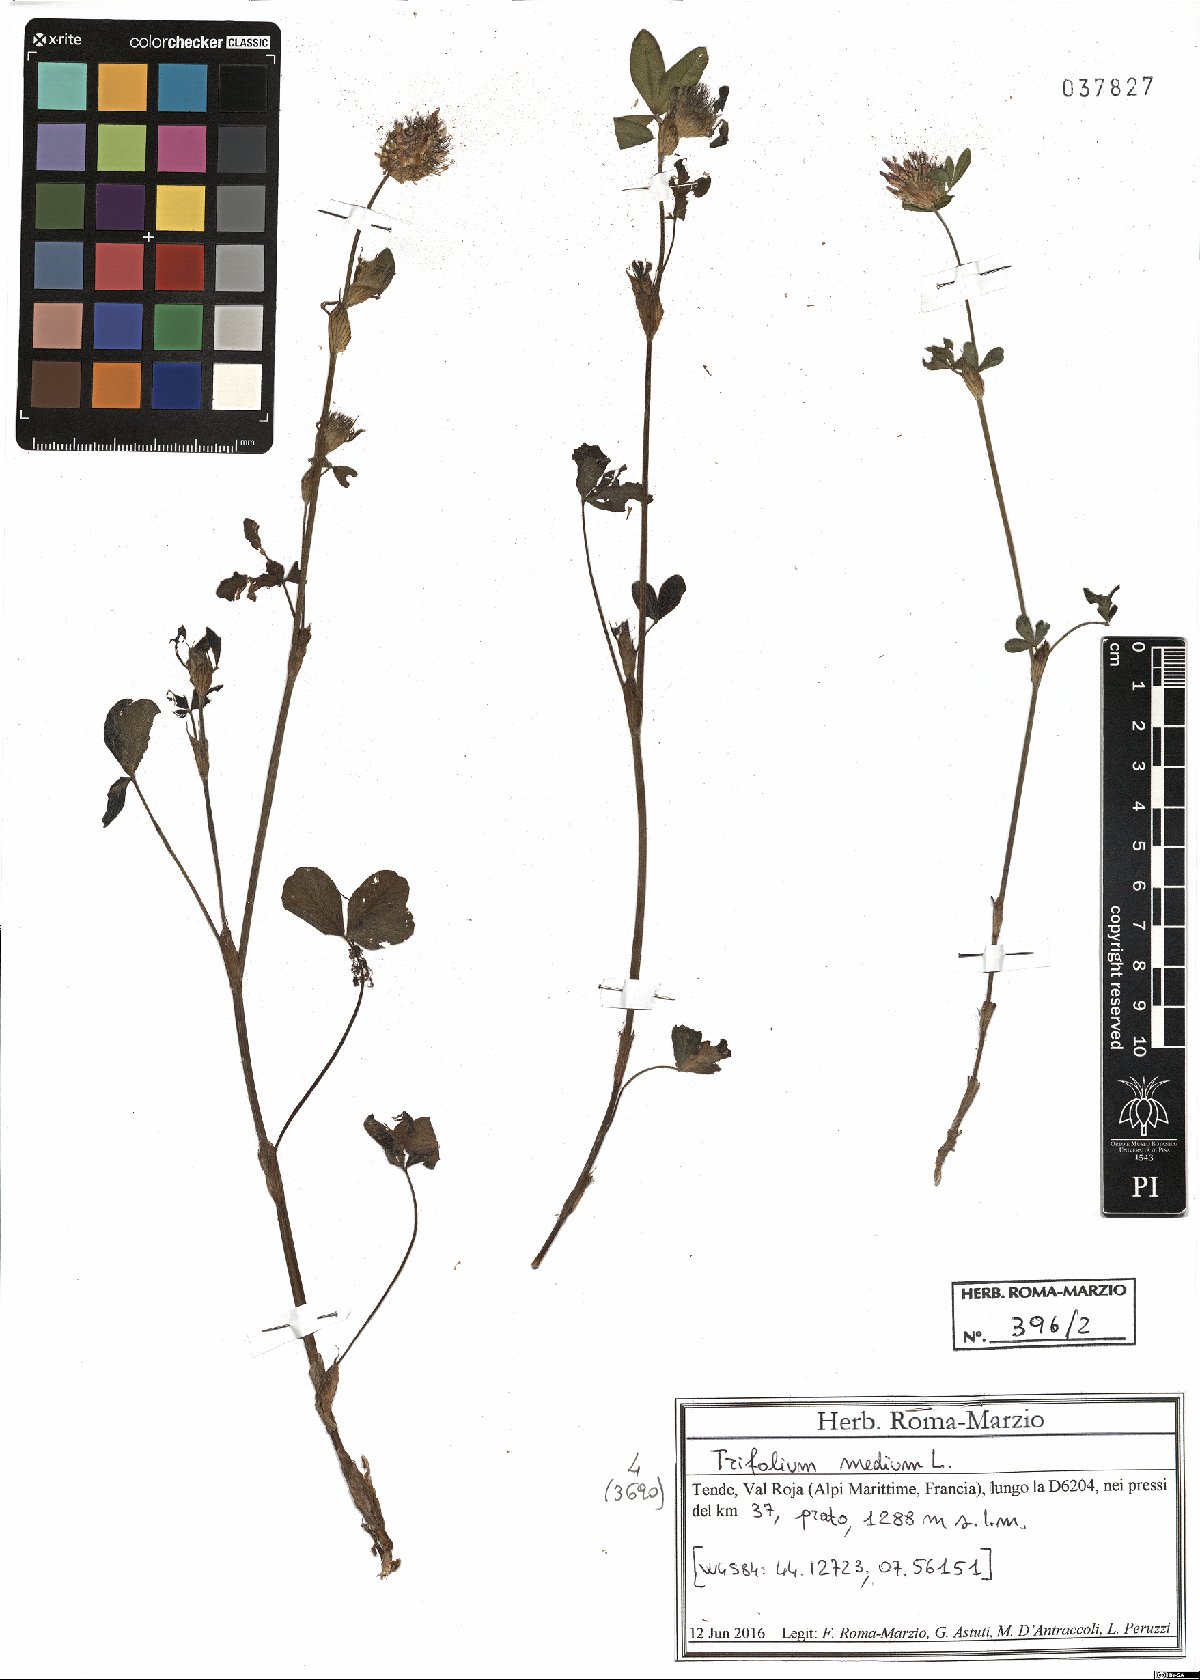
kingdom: Plantae
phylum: Tracheophyta
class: Magnoliopsida
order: Fabales
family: Fabaceae
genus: Trifolium
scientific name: Trifolium medium
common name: Zigzag clover
